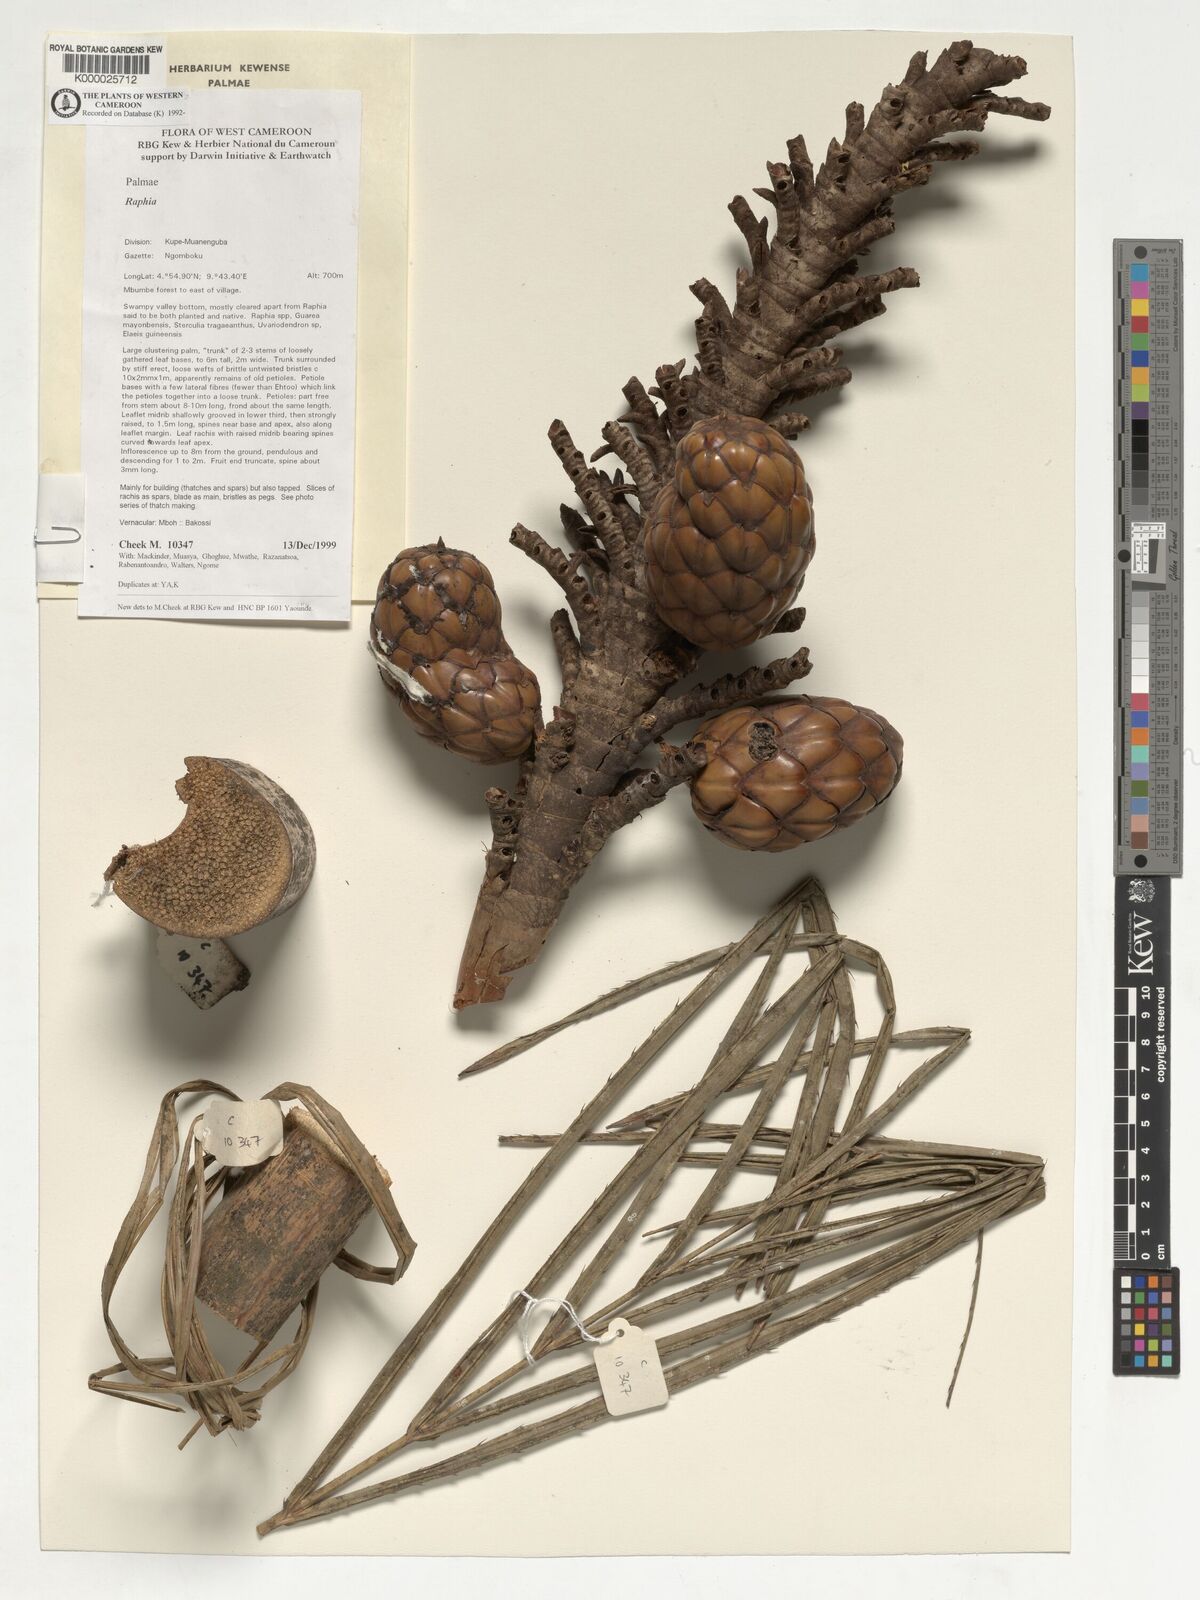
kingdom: Plantae
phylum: Tracheophyta
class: Liliopsida
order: Arecales
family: Arecaceae
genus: Raphia
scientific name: Raphia africana
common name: Raphia palm
